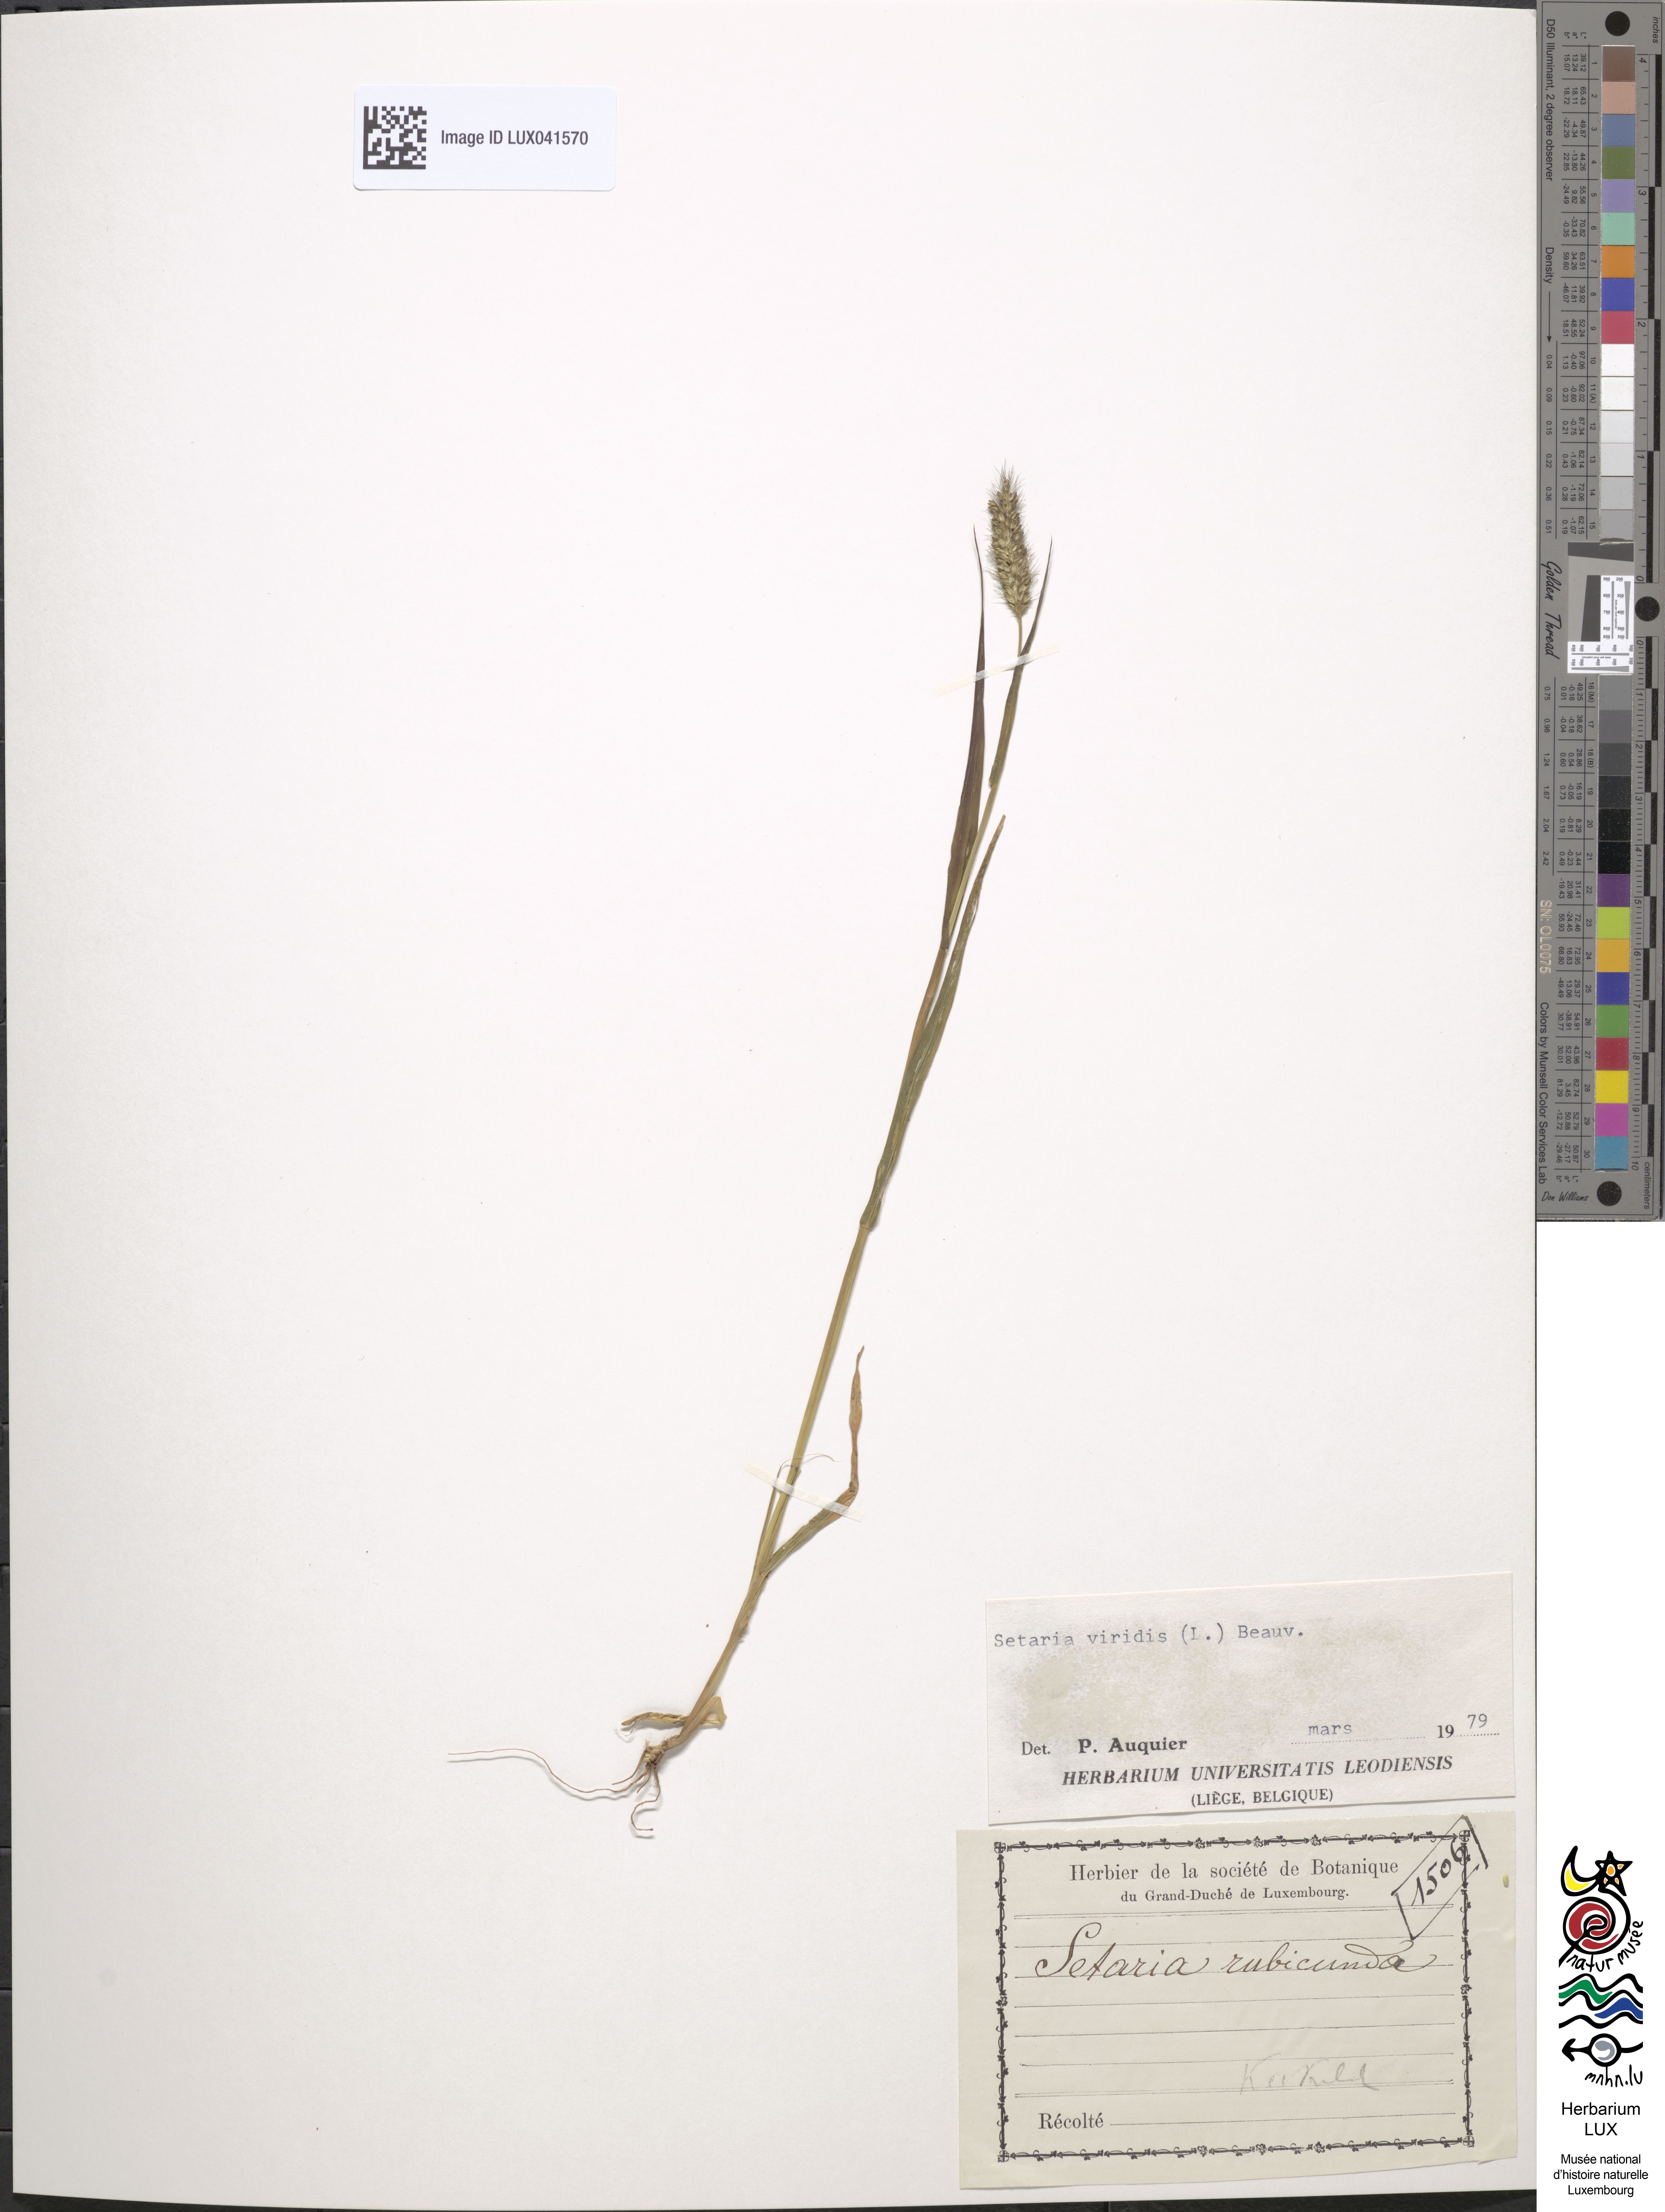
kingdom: Plantae
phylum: Tracheophyta
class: Liliopsida
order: Poales
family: Poaceae
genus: Setaria
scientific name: Setaria viridis
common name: Green bristlegrass
